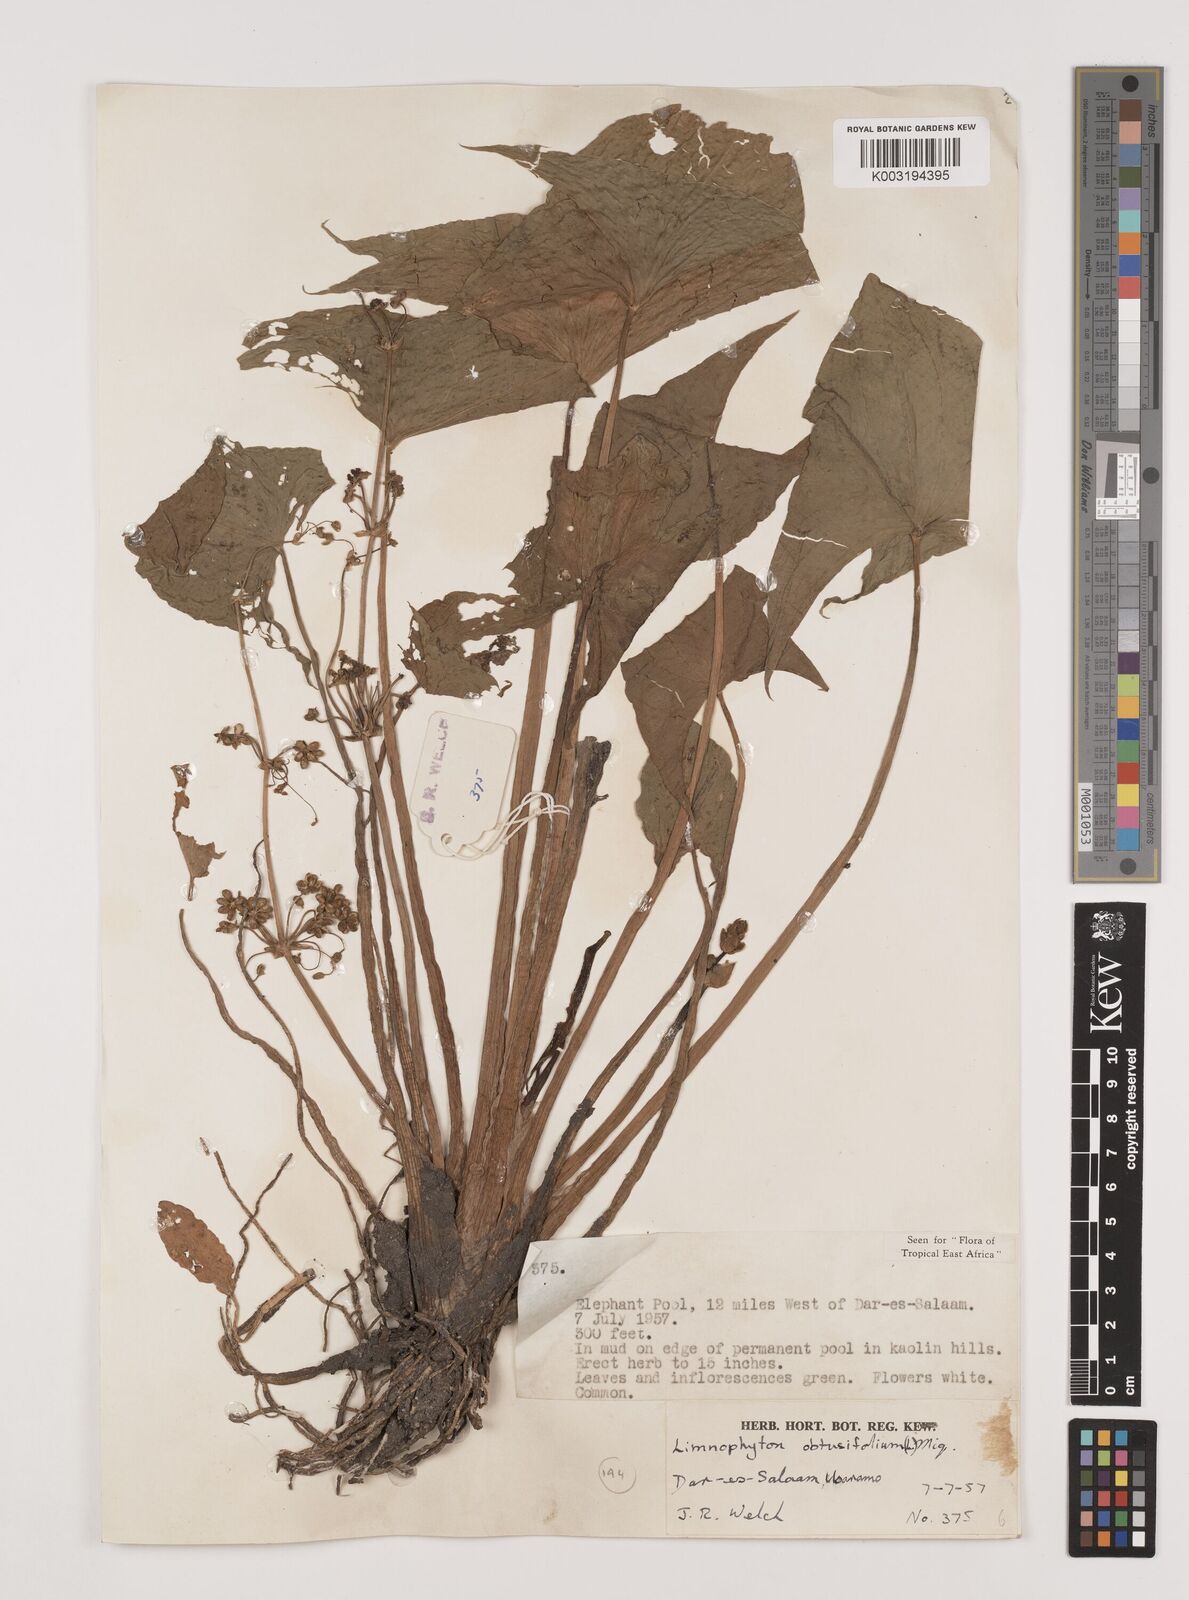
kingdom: Plantae
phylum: Tracheophyta
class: Liliopsida
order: Alismatales
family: Alismataceae
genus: Limnophyton
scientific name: Limnophyton obtusifolium
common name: Arrow head
